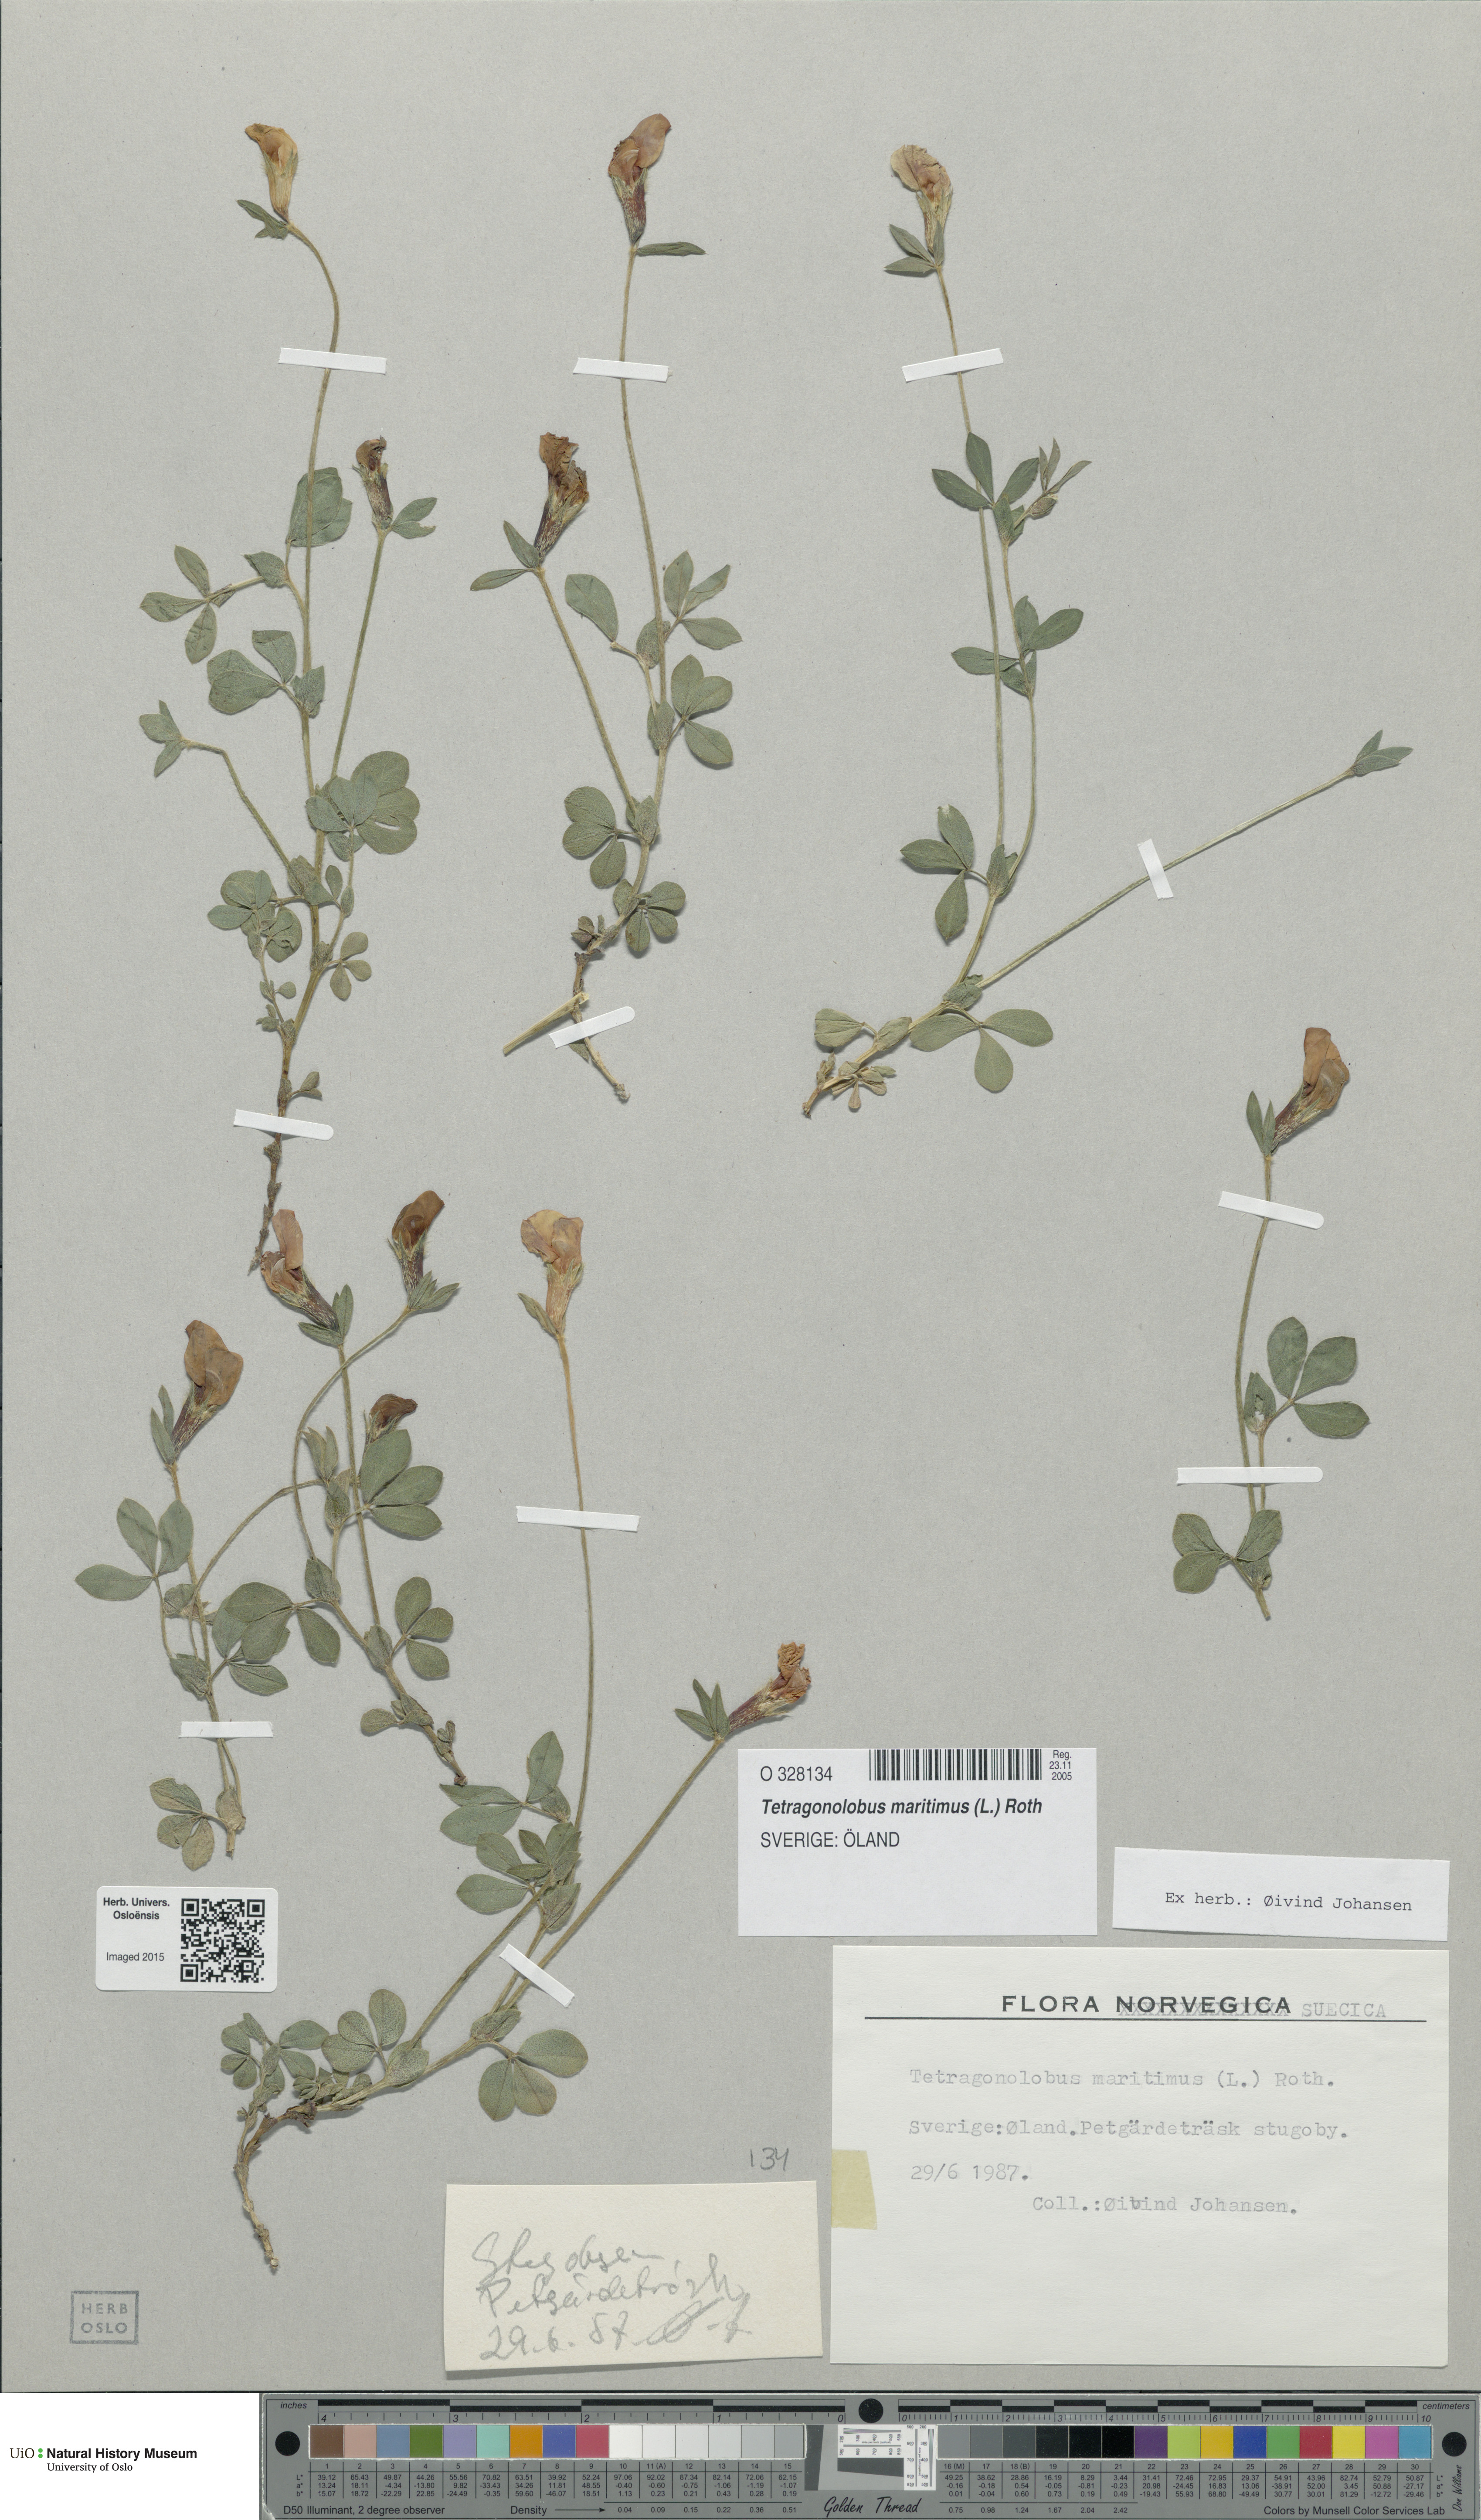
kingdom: Plantae
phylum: Tracheophyta
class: Magnoliopsida
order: Fabales
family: Fabaceae
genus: Lotus
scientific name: Lotus maritimus
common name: Dragon's-teeth
